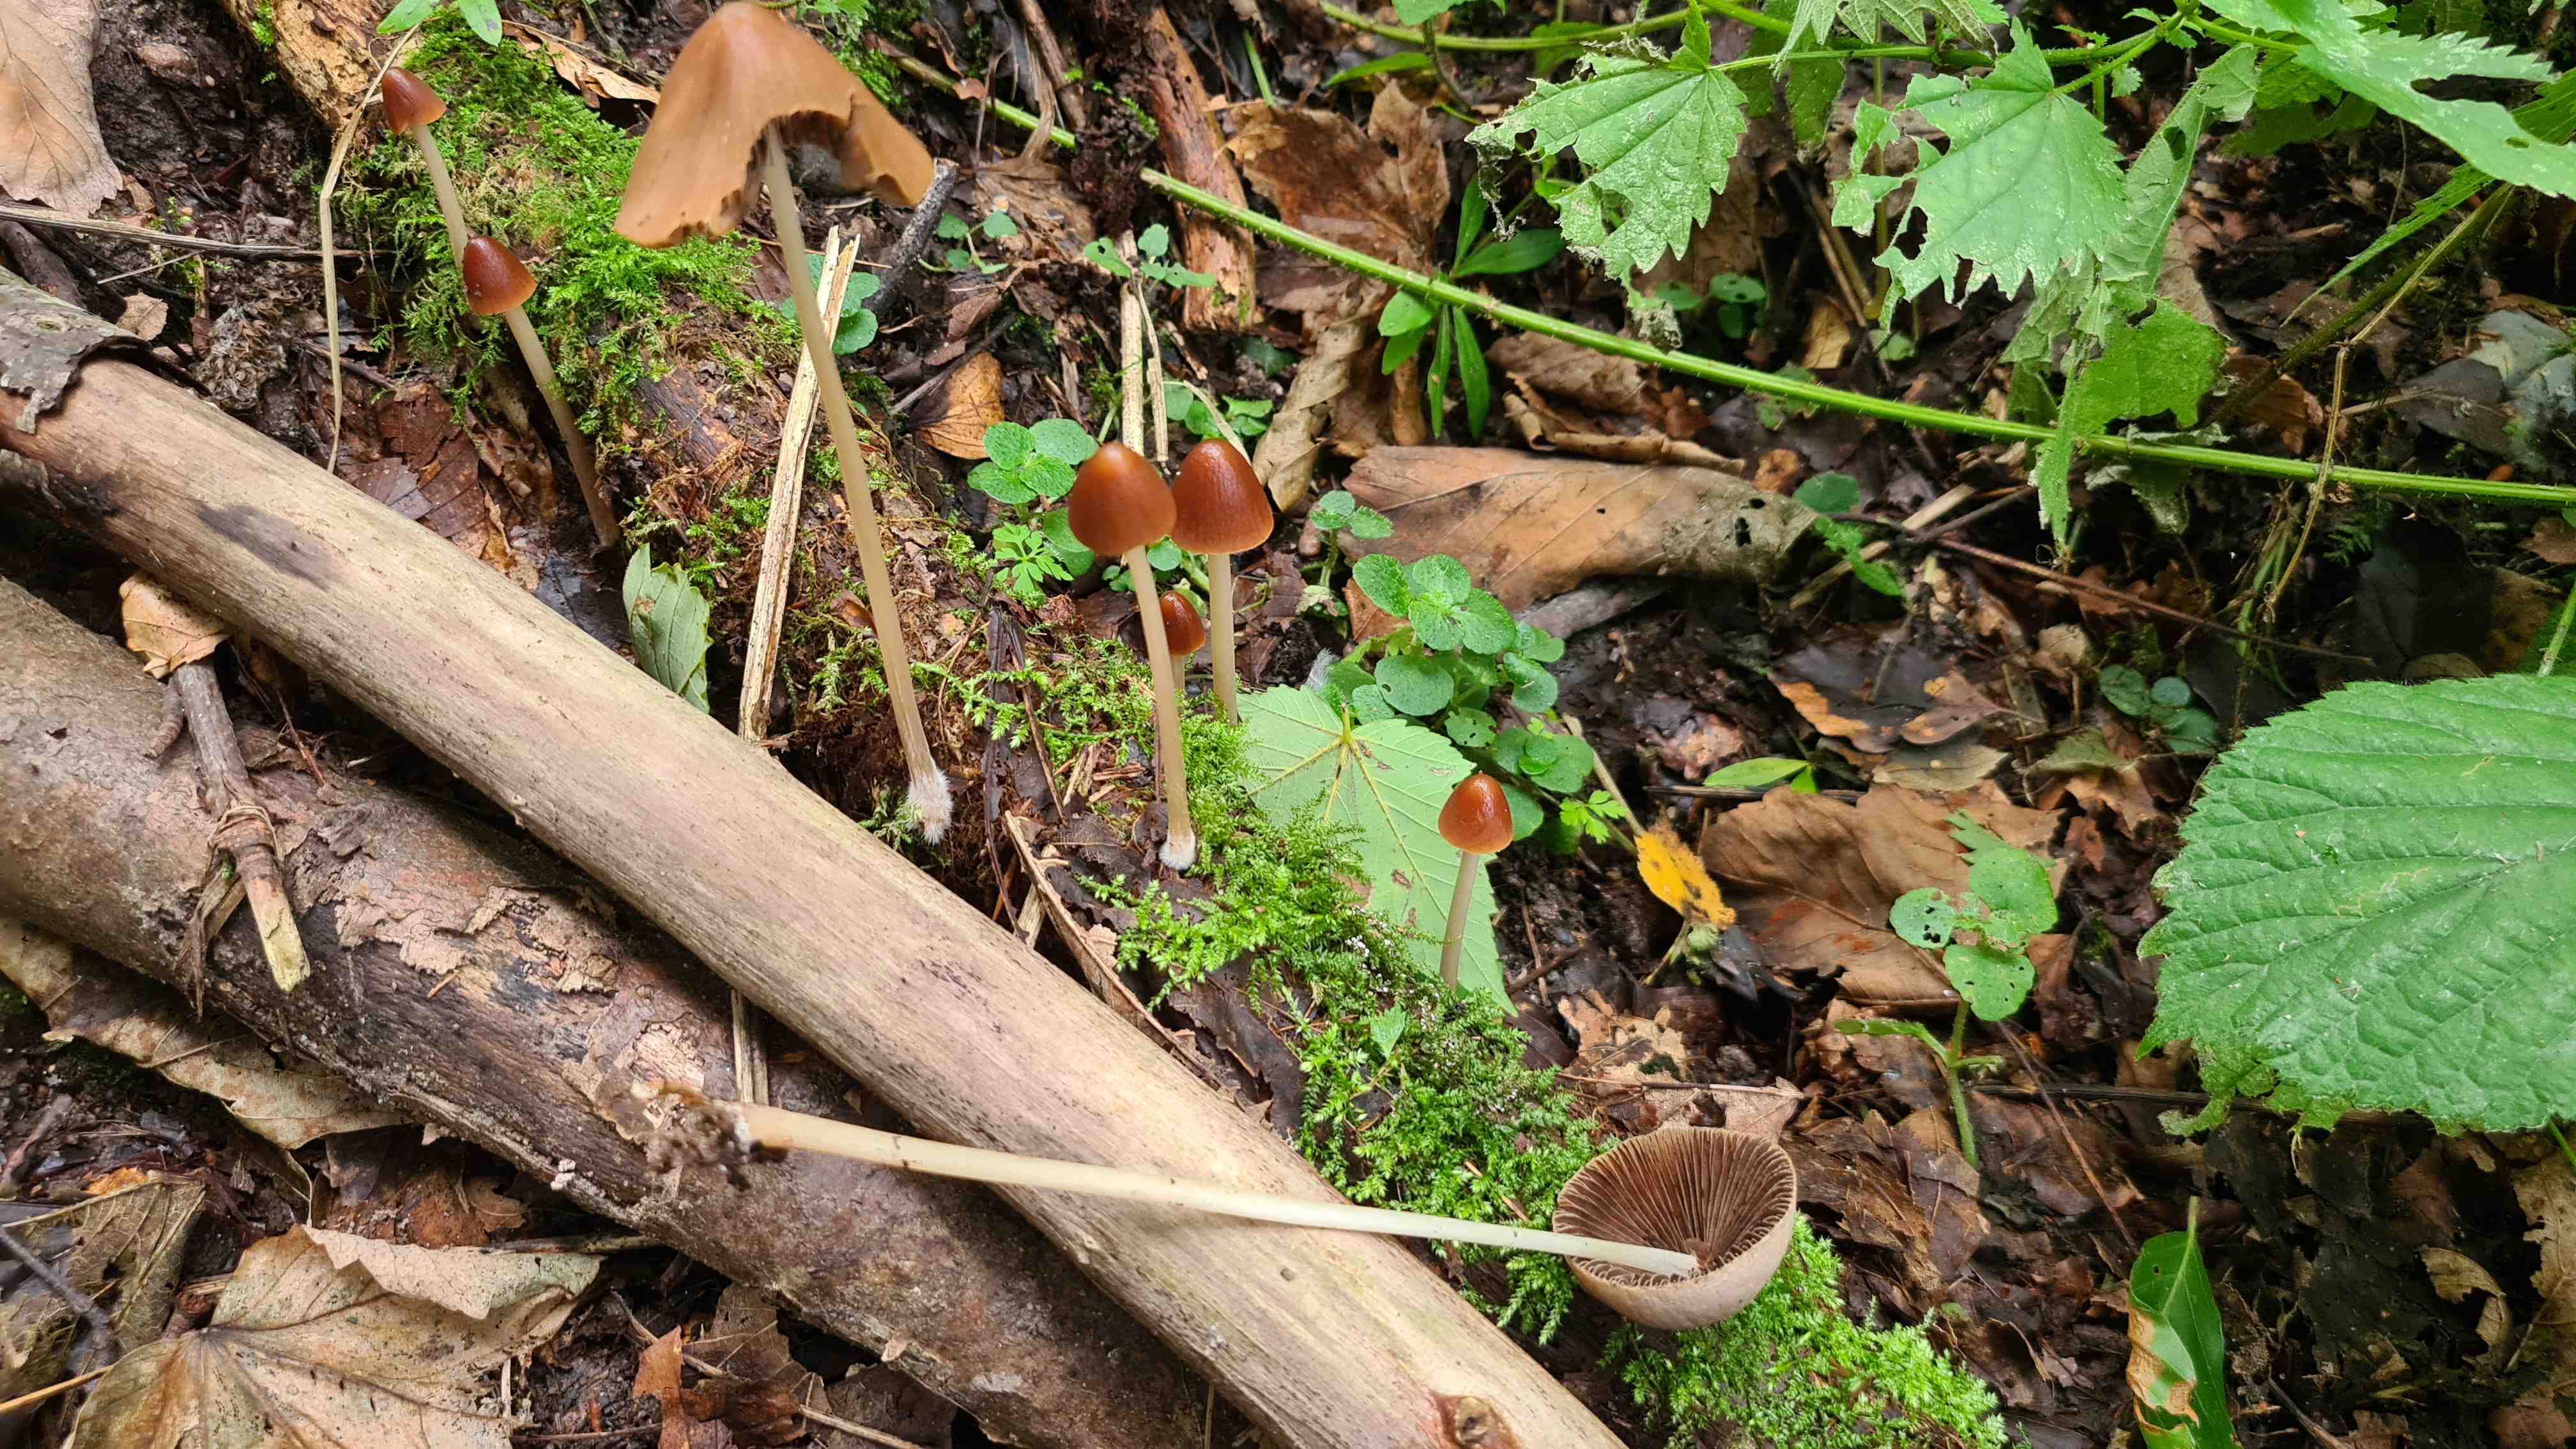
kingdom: Fungi
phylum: Basidiomycota
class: Agaricomycetes
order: Agaricales
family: Psathyrellaceae
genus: Parasola
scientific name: Parasola conopilea
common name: kegle-hjulhat
